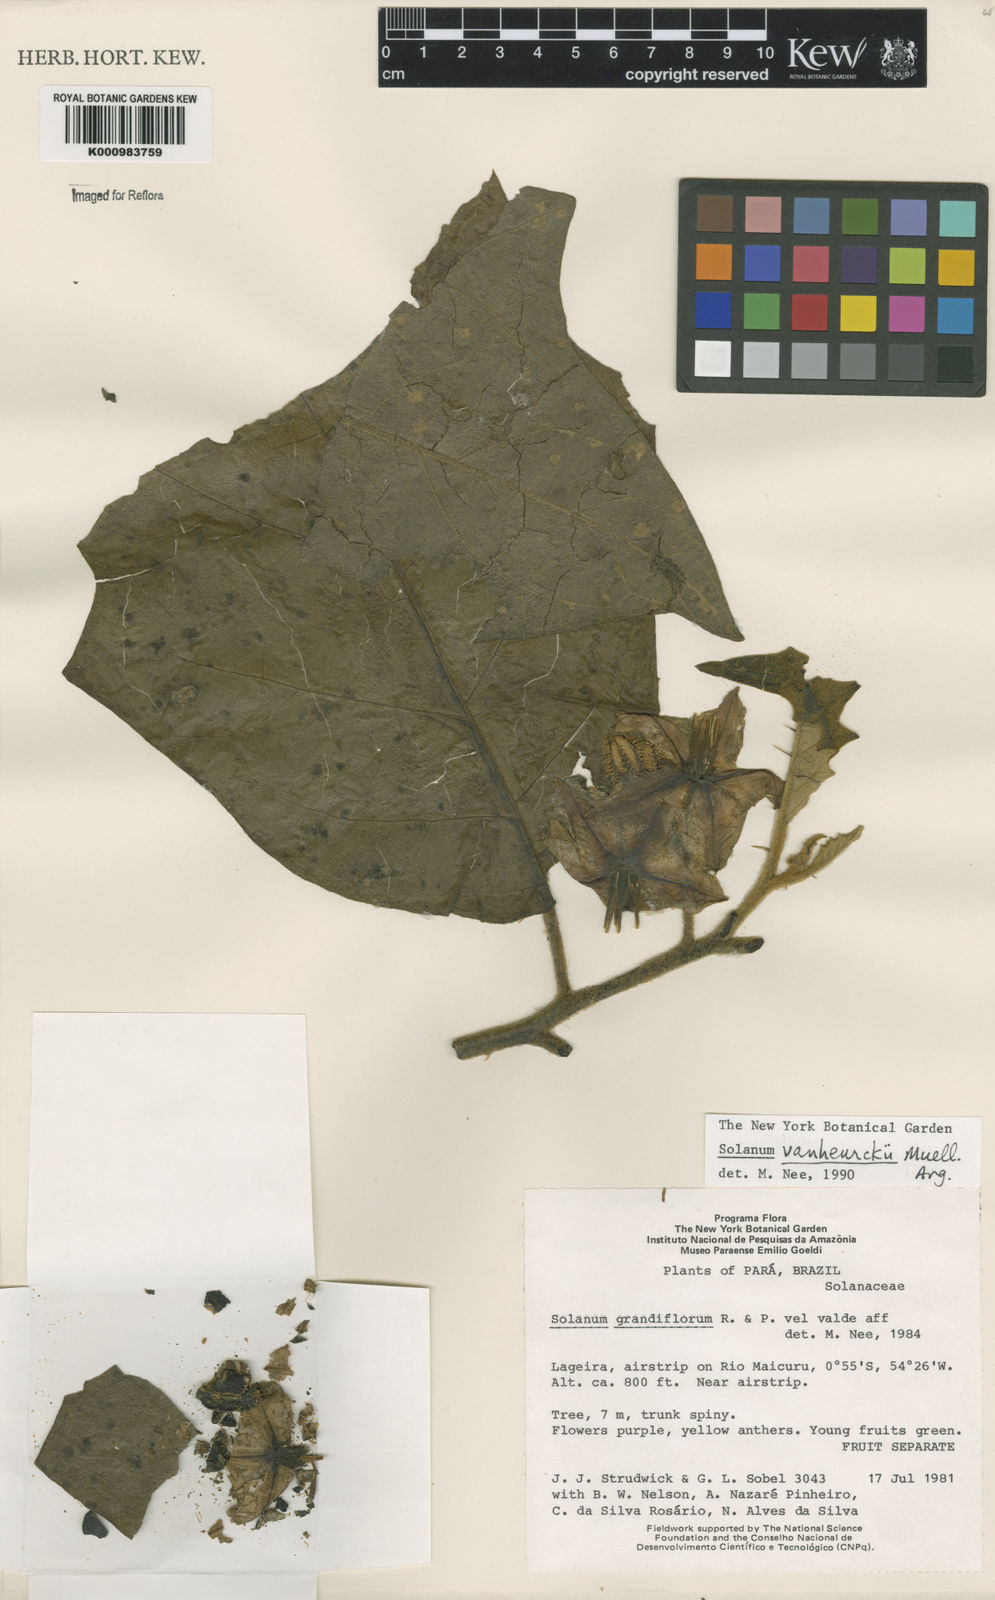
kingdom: Plantae
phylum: Tracheophyta
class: Magnoliopsida
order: Solanales
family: Solanaceae
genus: Solanum
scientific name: Solanum
